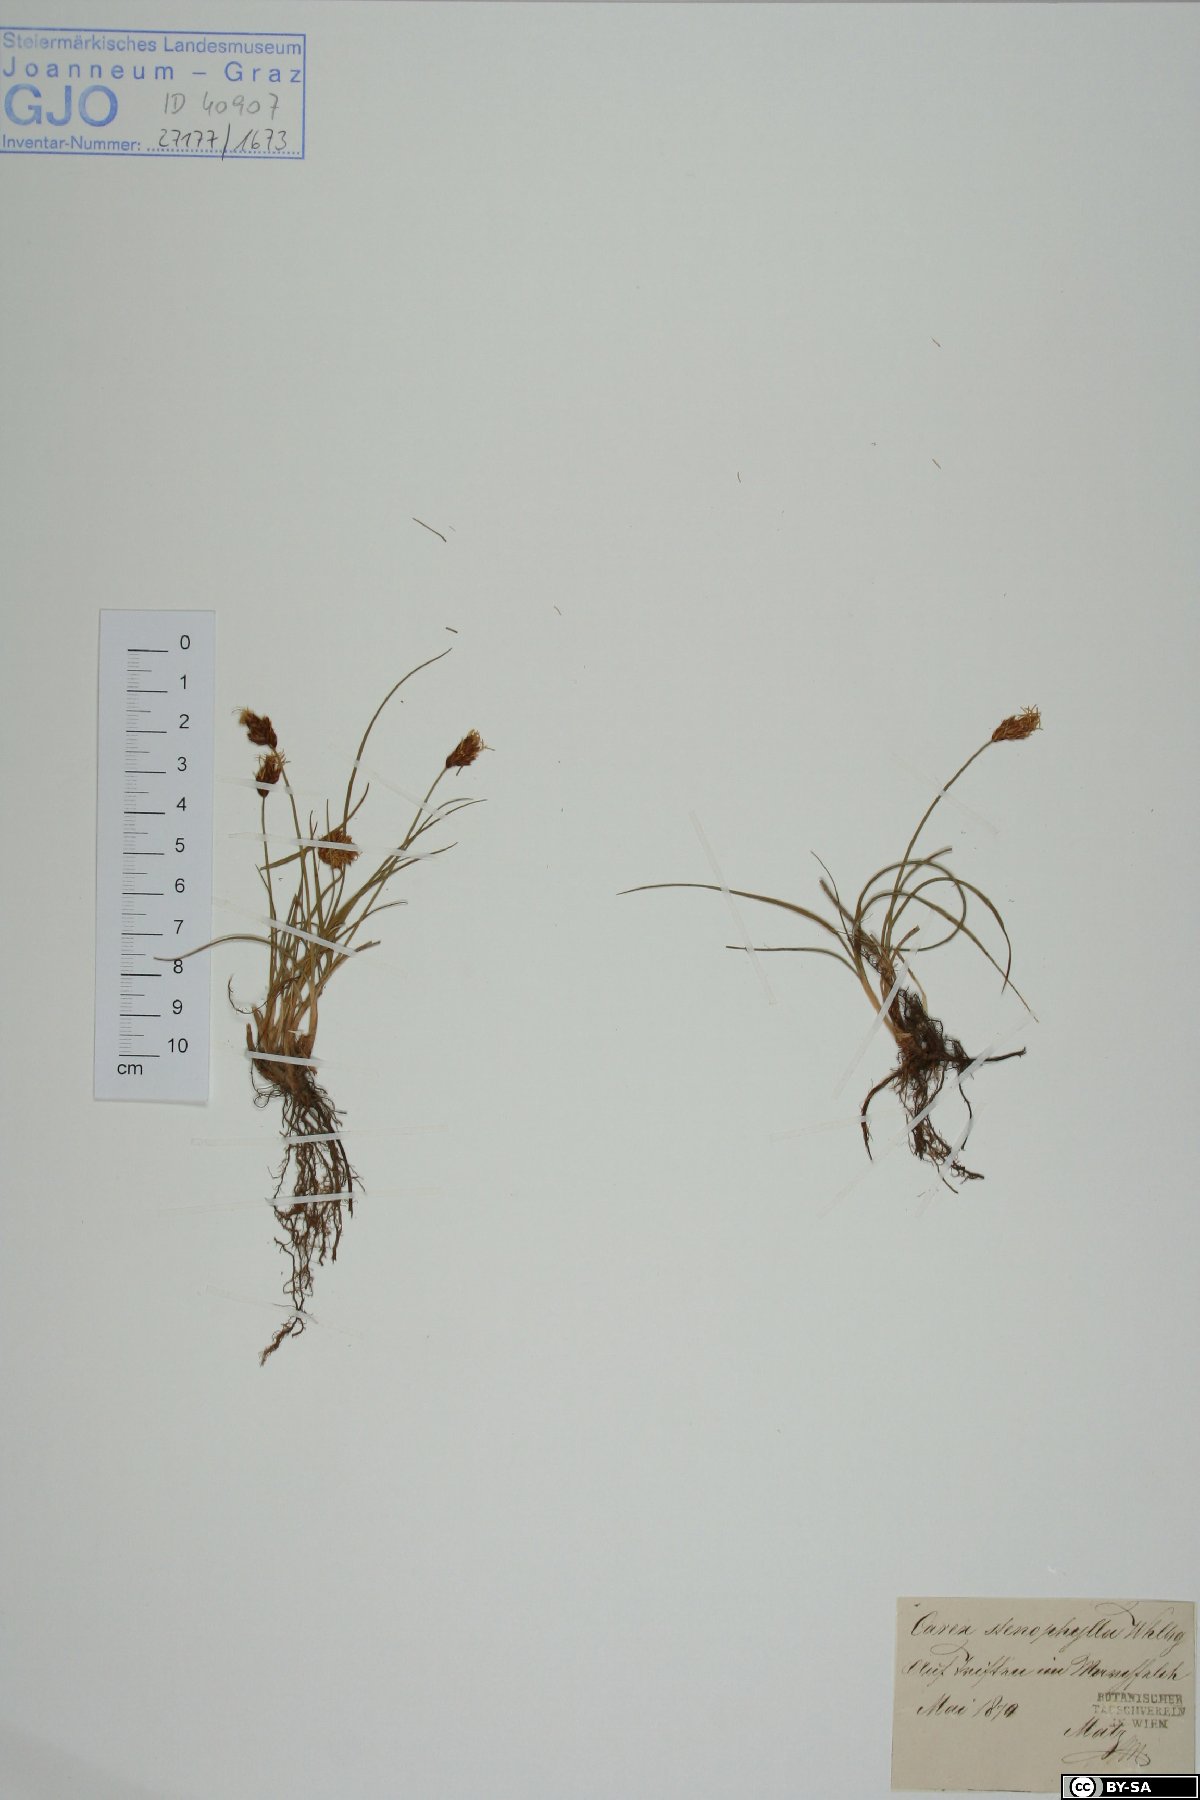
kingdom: Plantae
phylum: Tracheophyta
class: Liliopsida
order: Poales
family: Cyperaceae
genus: Carex
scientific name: Carex stenophylla
